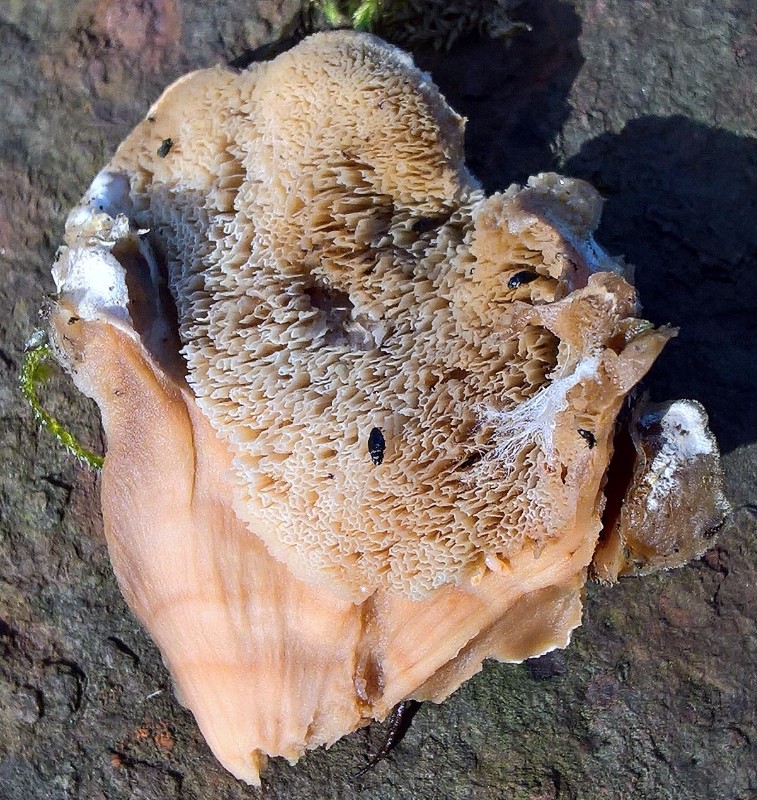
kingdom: Fungi
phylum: Basidiomycota
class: Agaricomycetes
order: Polyporales
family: Phanerochaetaceae
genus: Bjerkandera
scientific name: Bjerkandera fumosa
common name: grågul sodporesvamp
